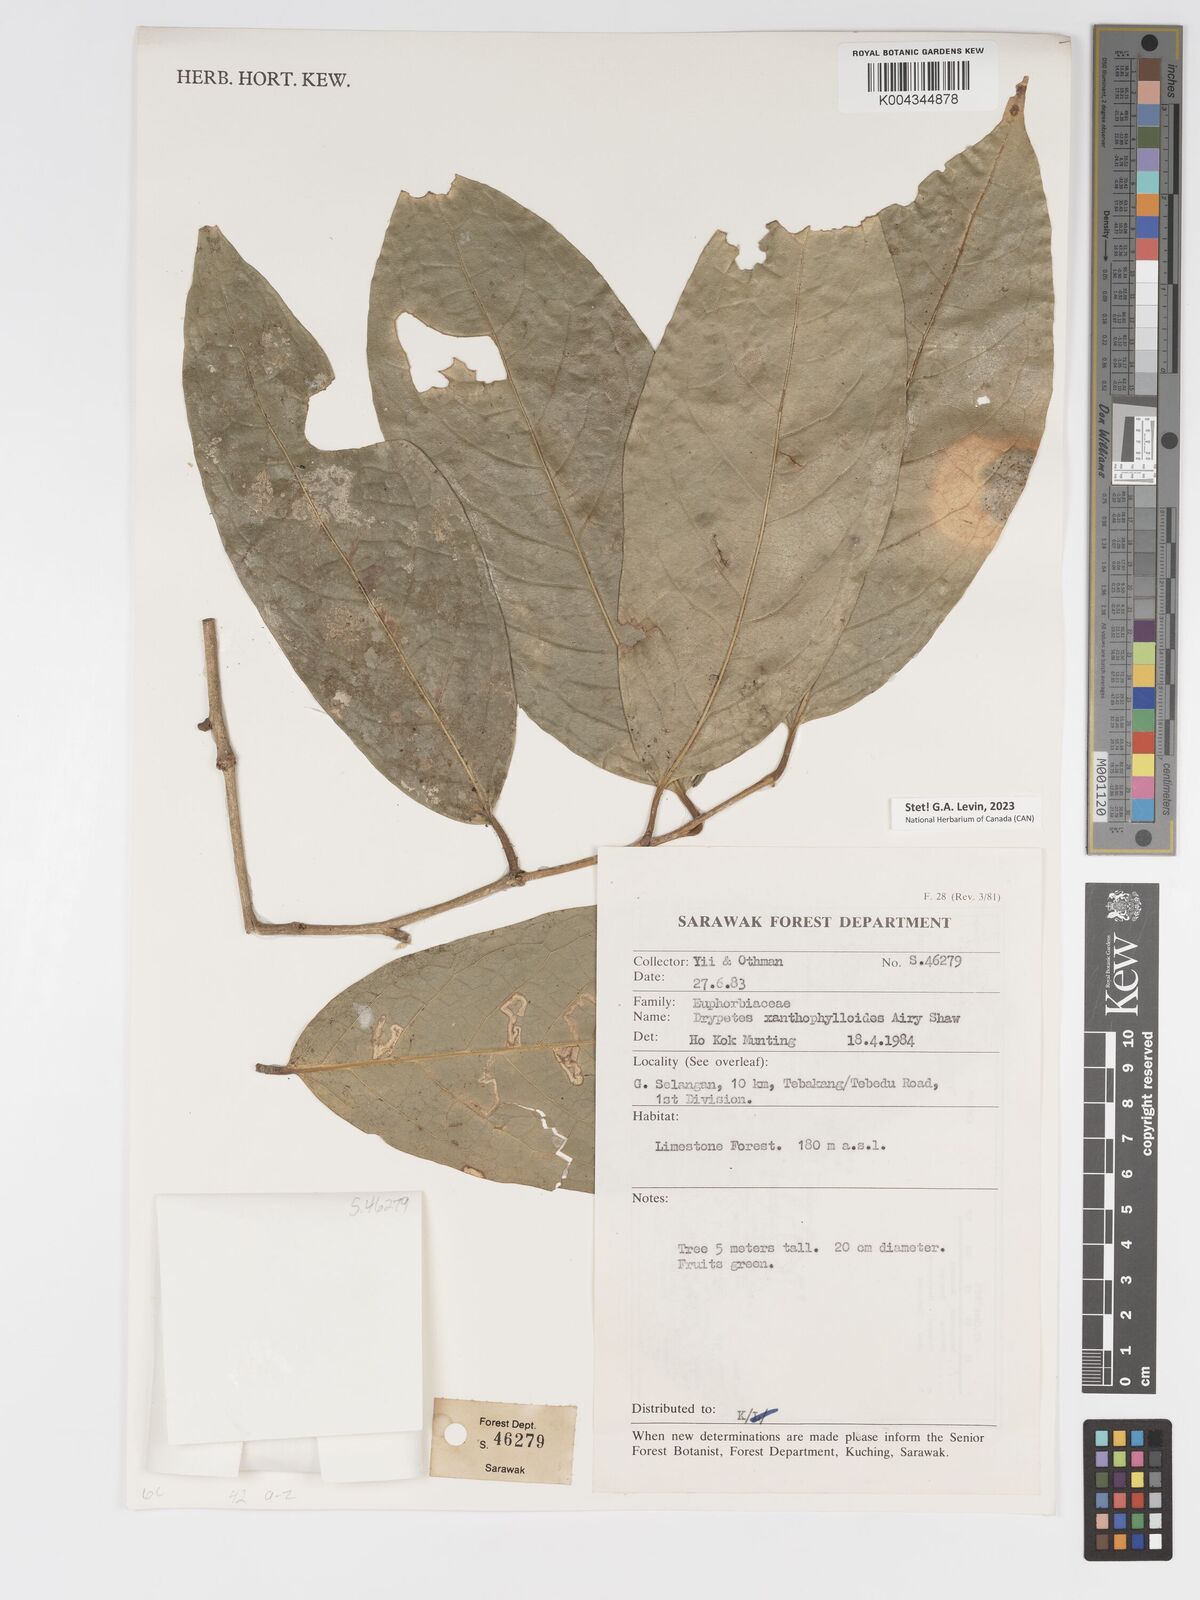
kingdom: Plantae
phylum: Tracheophyta
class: Magnoliopsida
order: Malpighiales
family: Putranjivaceae
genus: Drypetes
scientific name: Drypetes xanthophylloides
